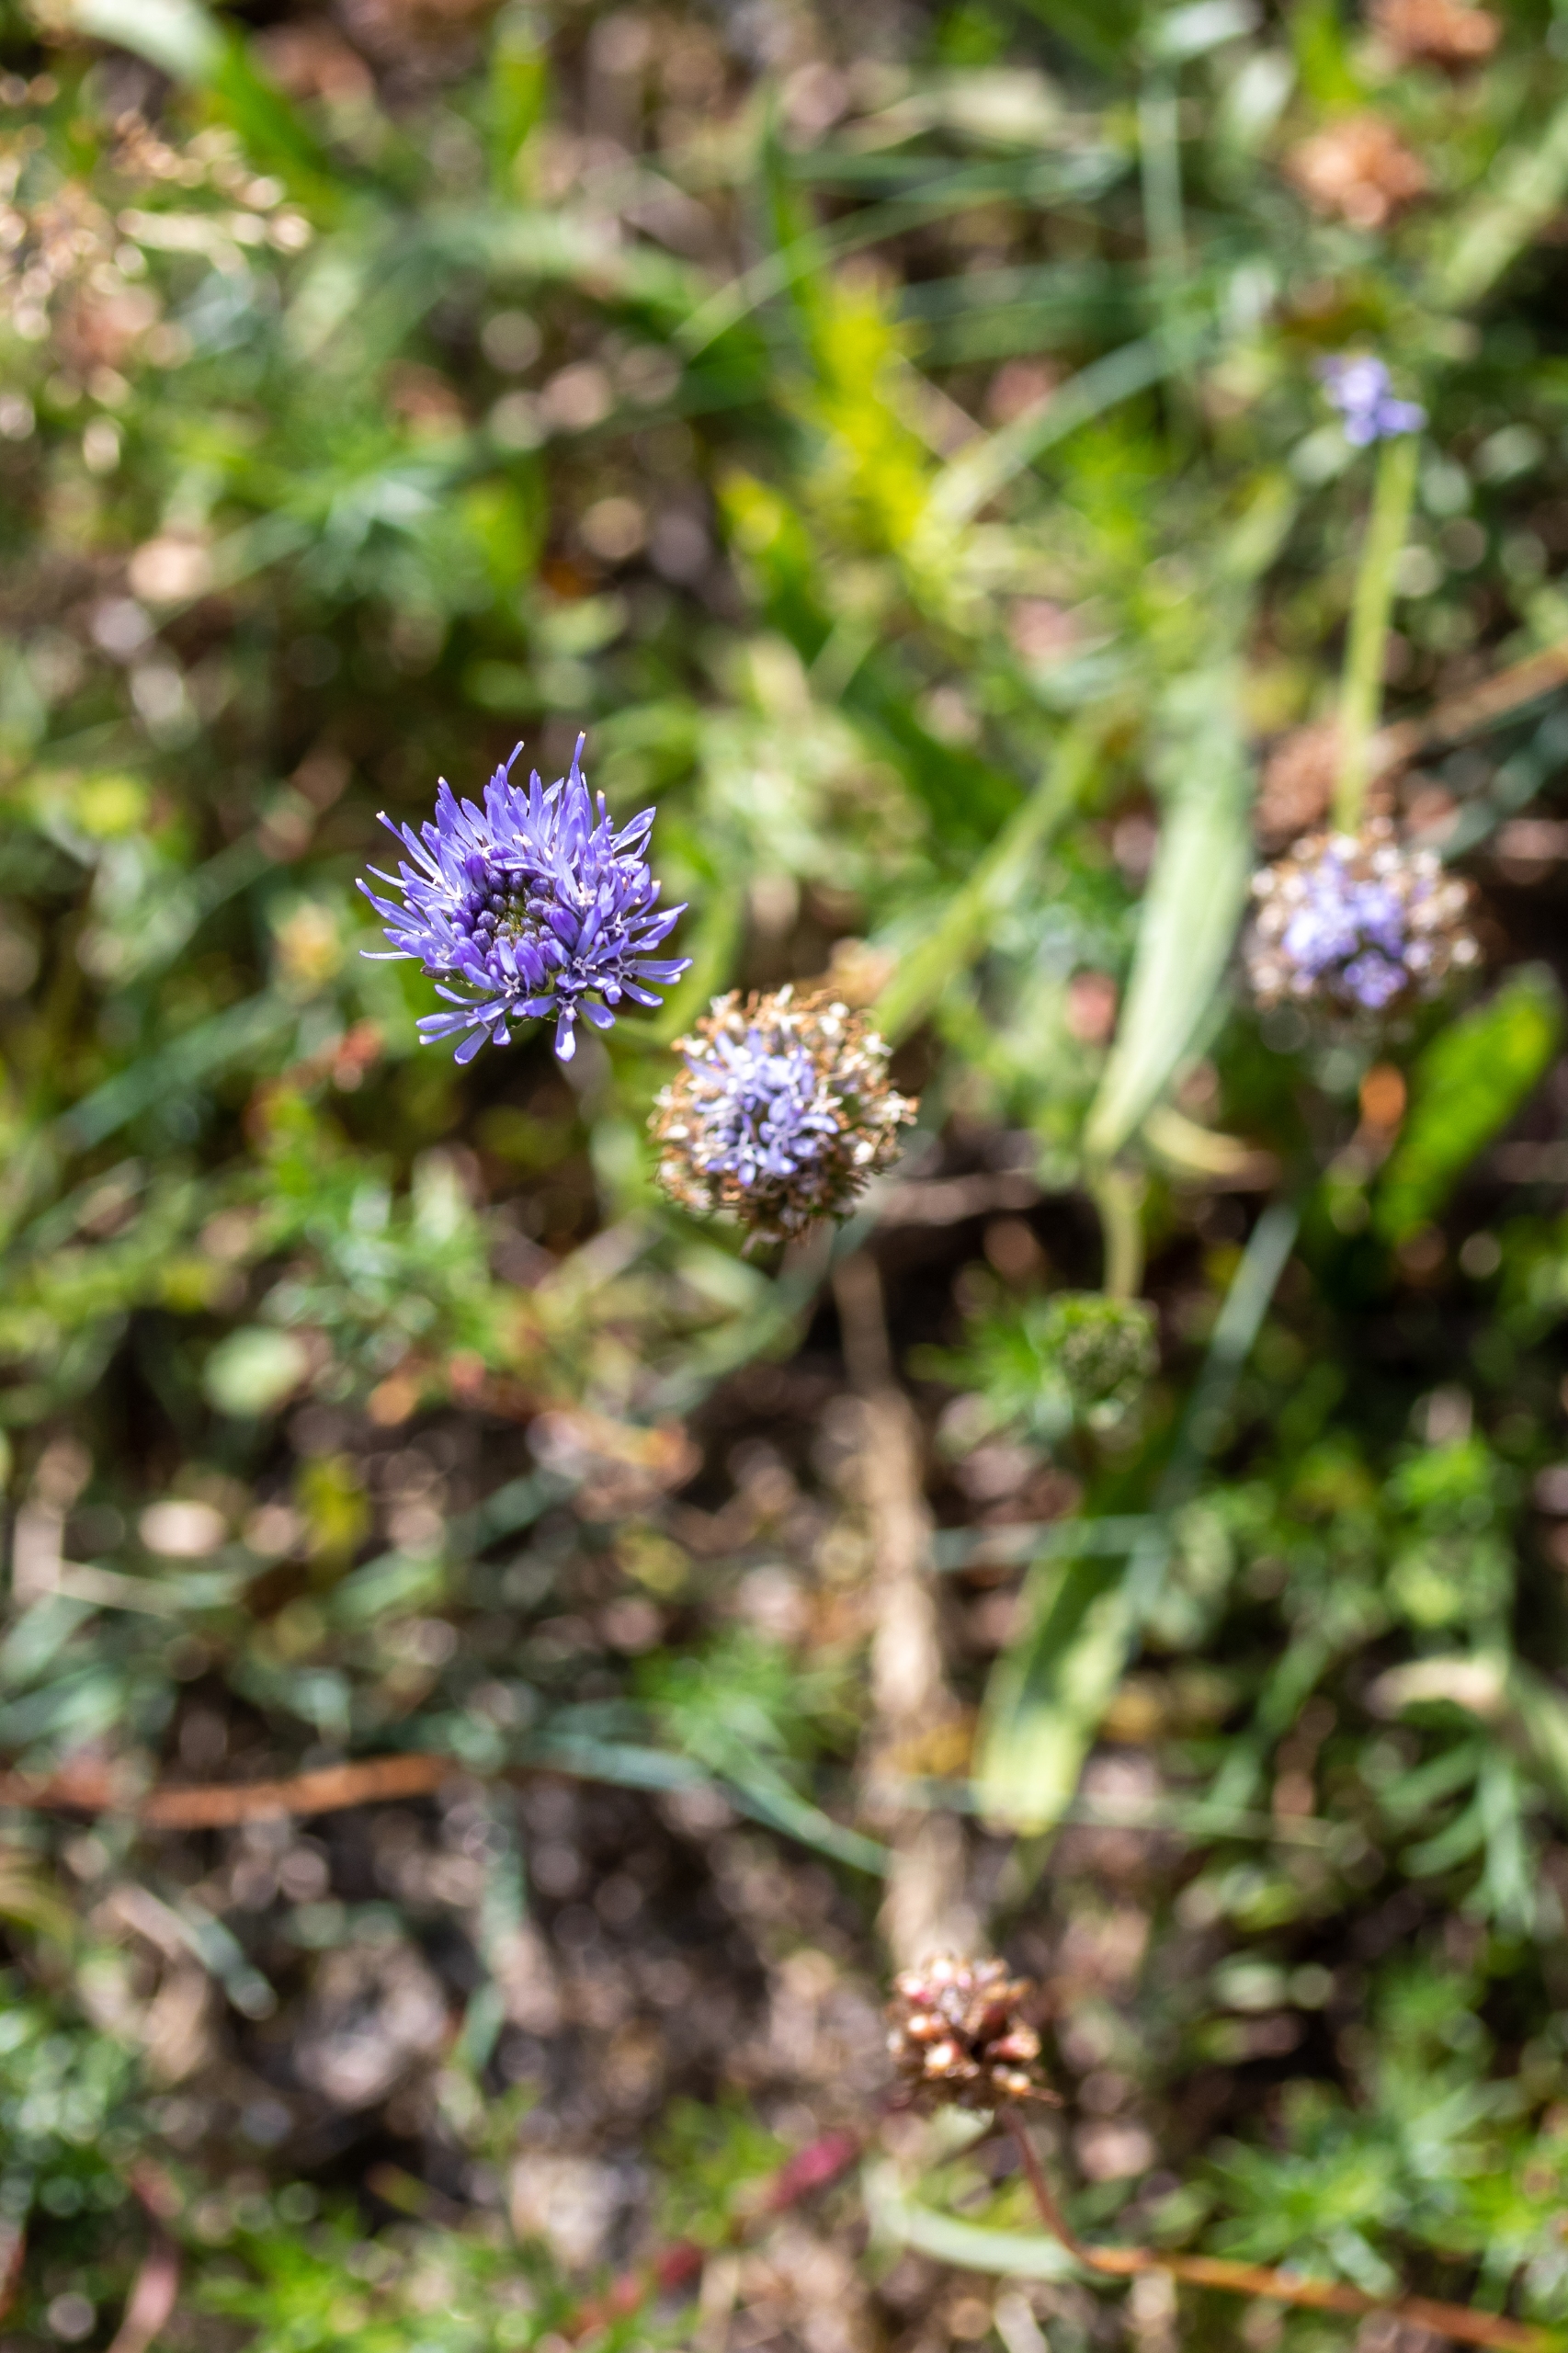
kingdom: Plantae
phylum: Tracheophyta
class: Magnoliopsida
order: Asterales
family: Campanulaceae
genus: Jasione
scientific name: Jasione montana
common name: Blåmunke
